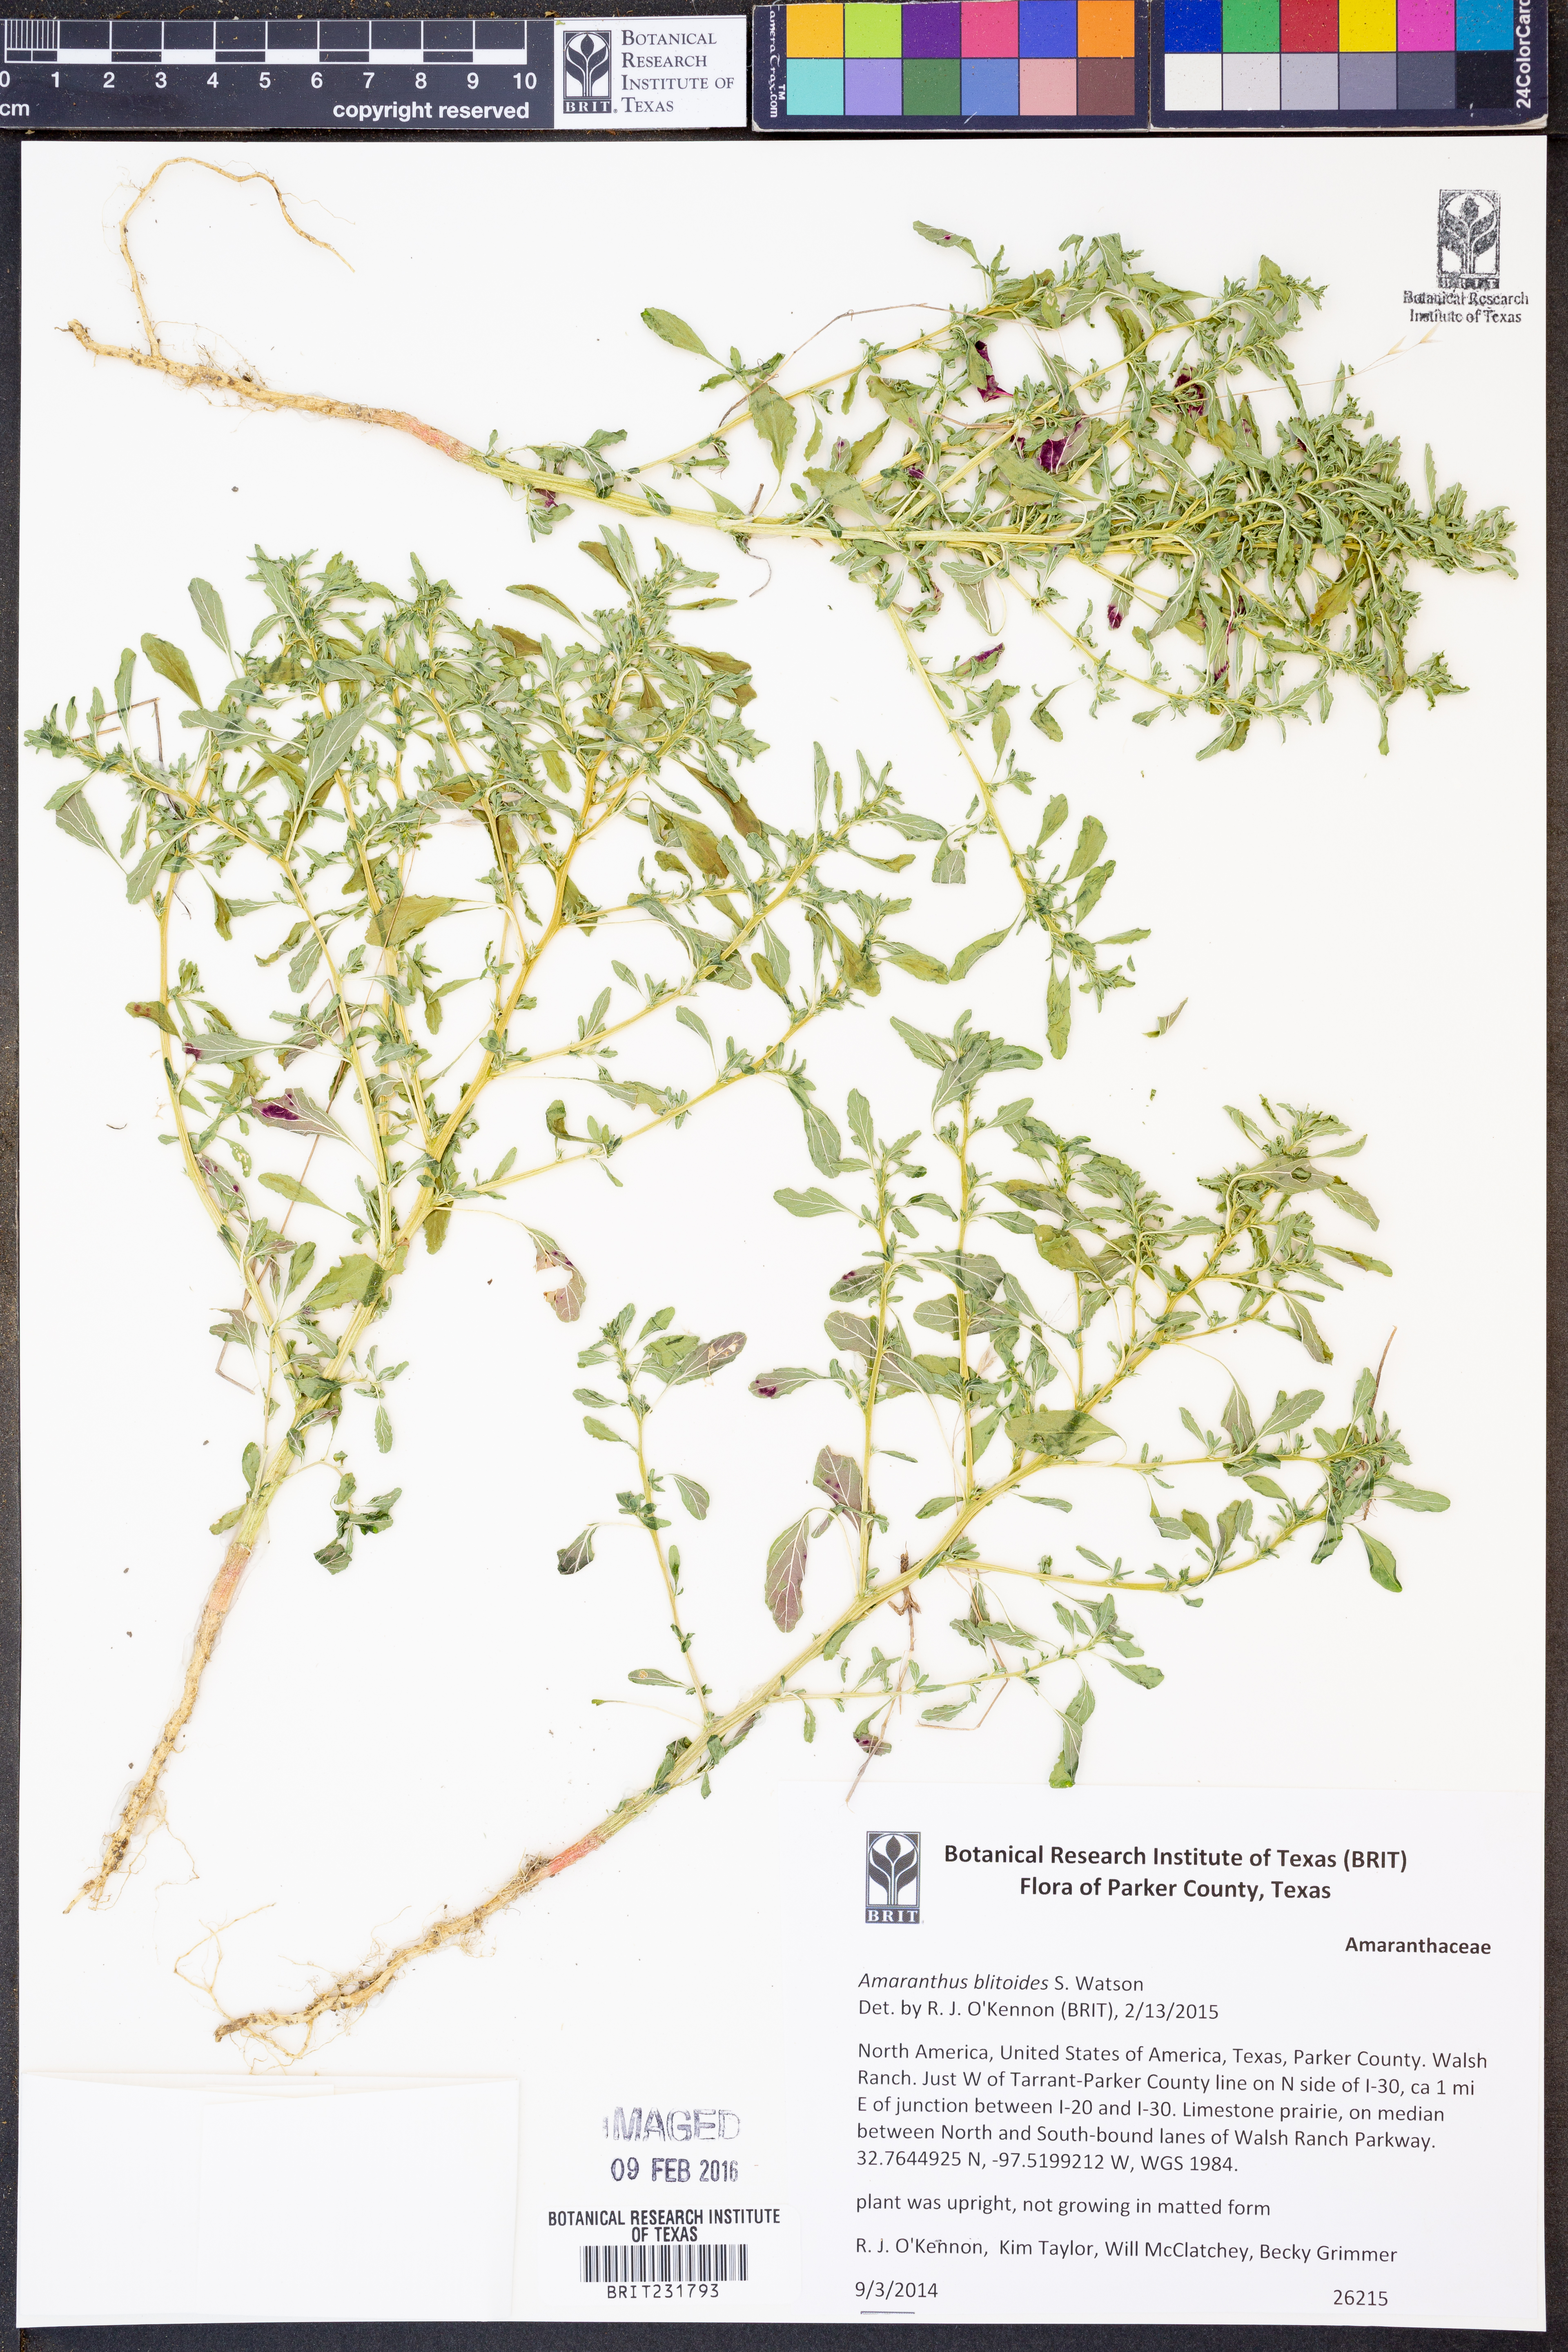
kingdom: Plantae
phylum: Tracheophyta
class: Magnoliopsida
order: Caryophyllales
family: Amaranthaceae
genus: Amaranthus
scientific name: Amaranthus blitoides
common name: Prostrate pigweed
